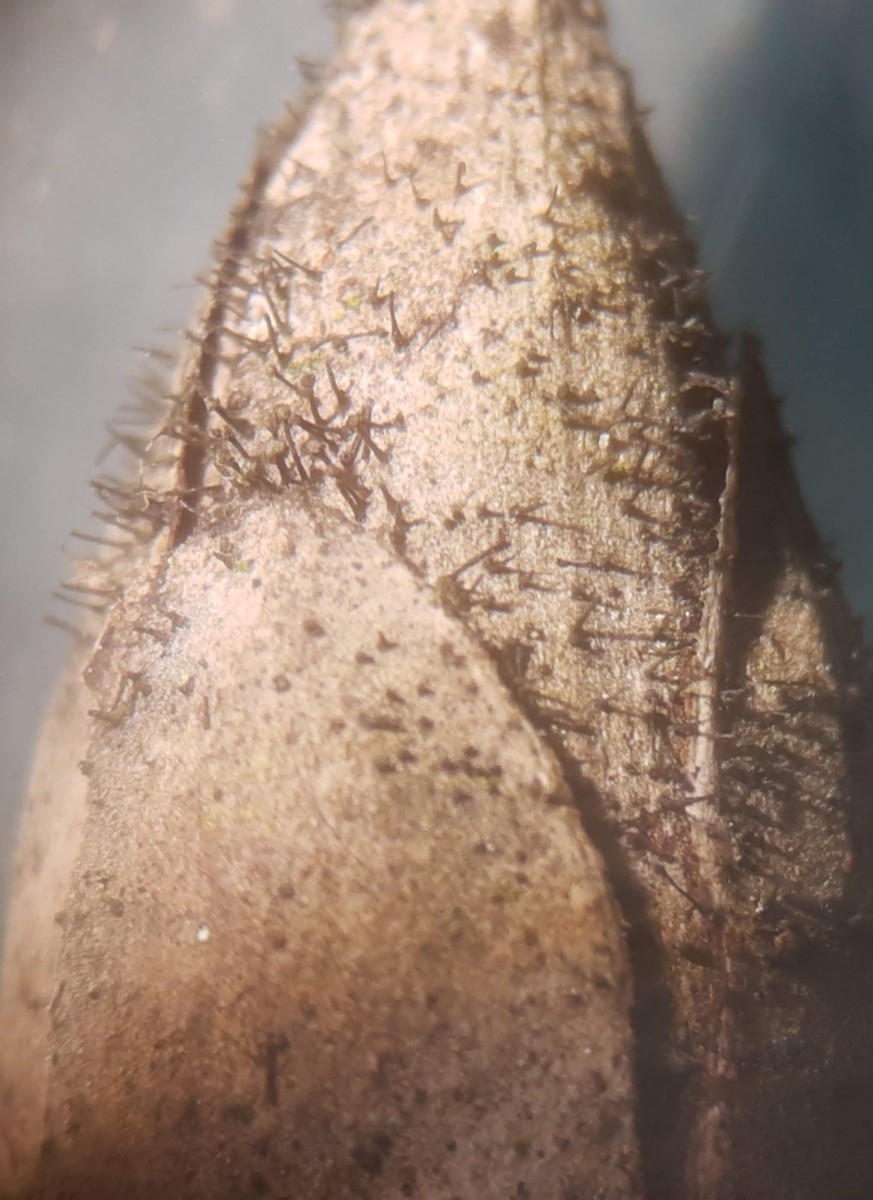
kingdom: Fungi
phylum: Ascomycota
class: Dothideomycetes
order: Pleosporales
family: Melanommataceae
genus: Seifertia
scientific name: Seifertia azaleae
